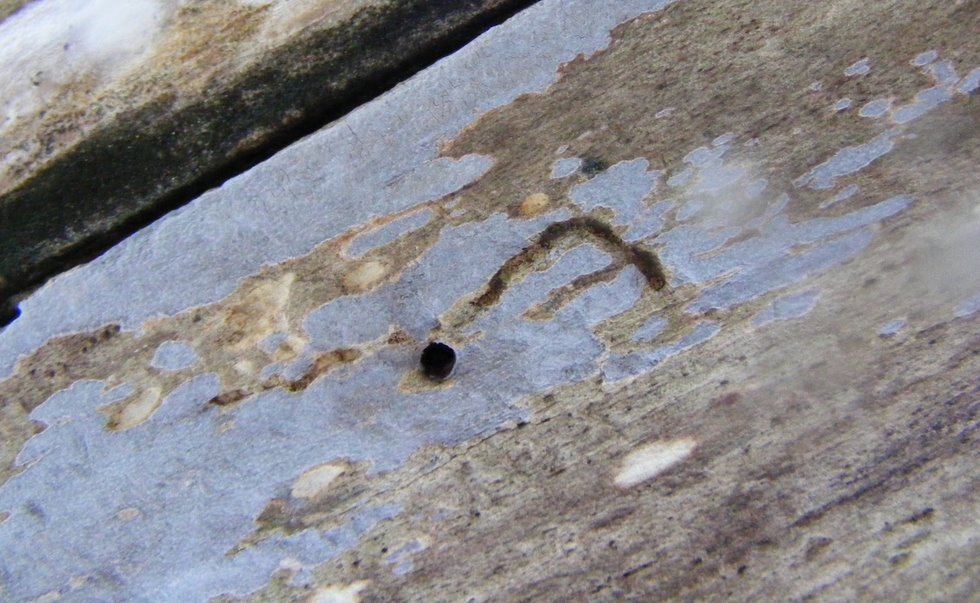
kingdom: Fungi
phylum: Basidiomycota
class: Agaricomycetes
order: Agaricales
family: Radulomycetaceae
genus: Radulomyces
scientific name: Radulomyces confluens
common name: glat naftalinskind
